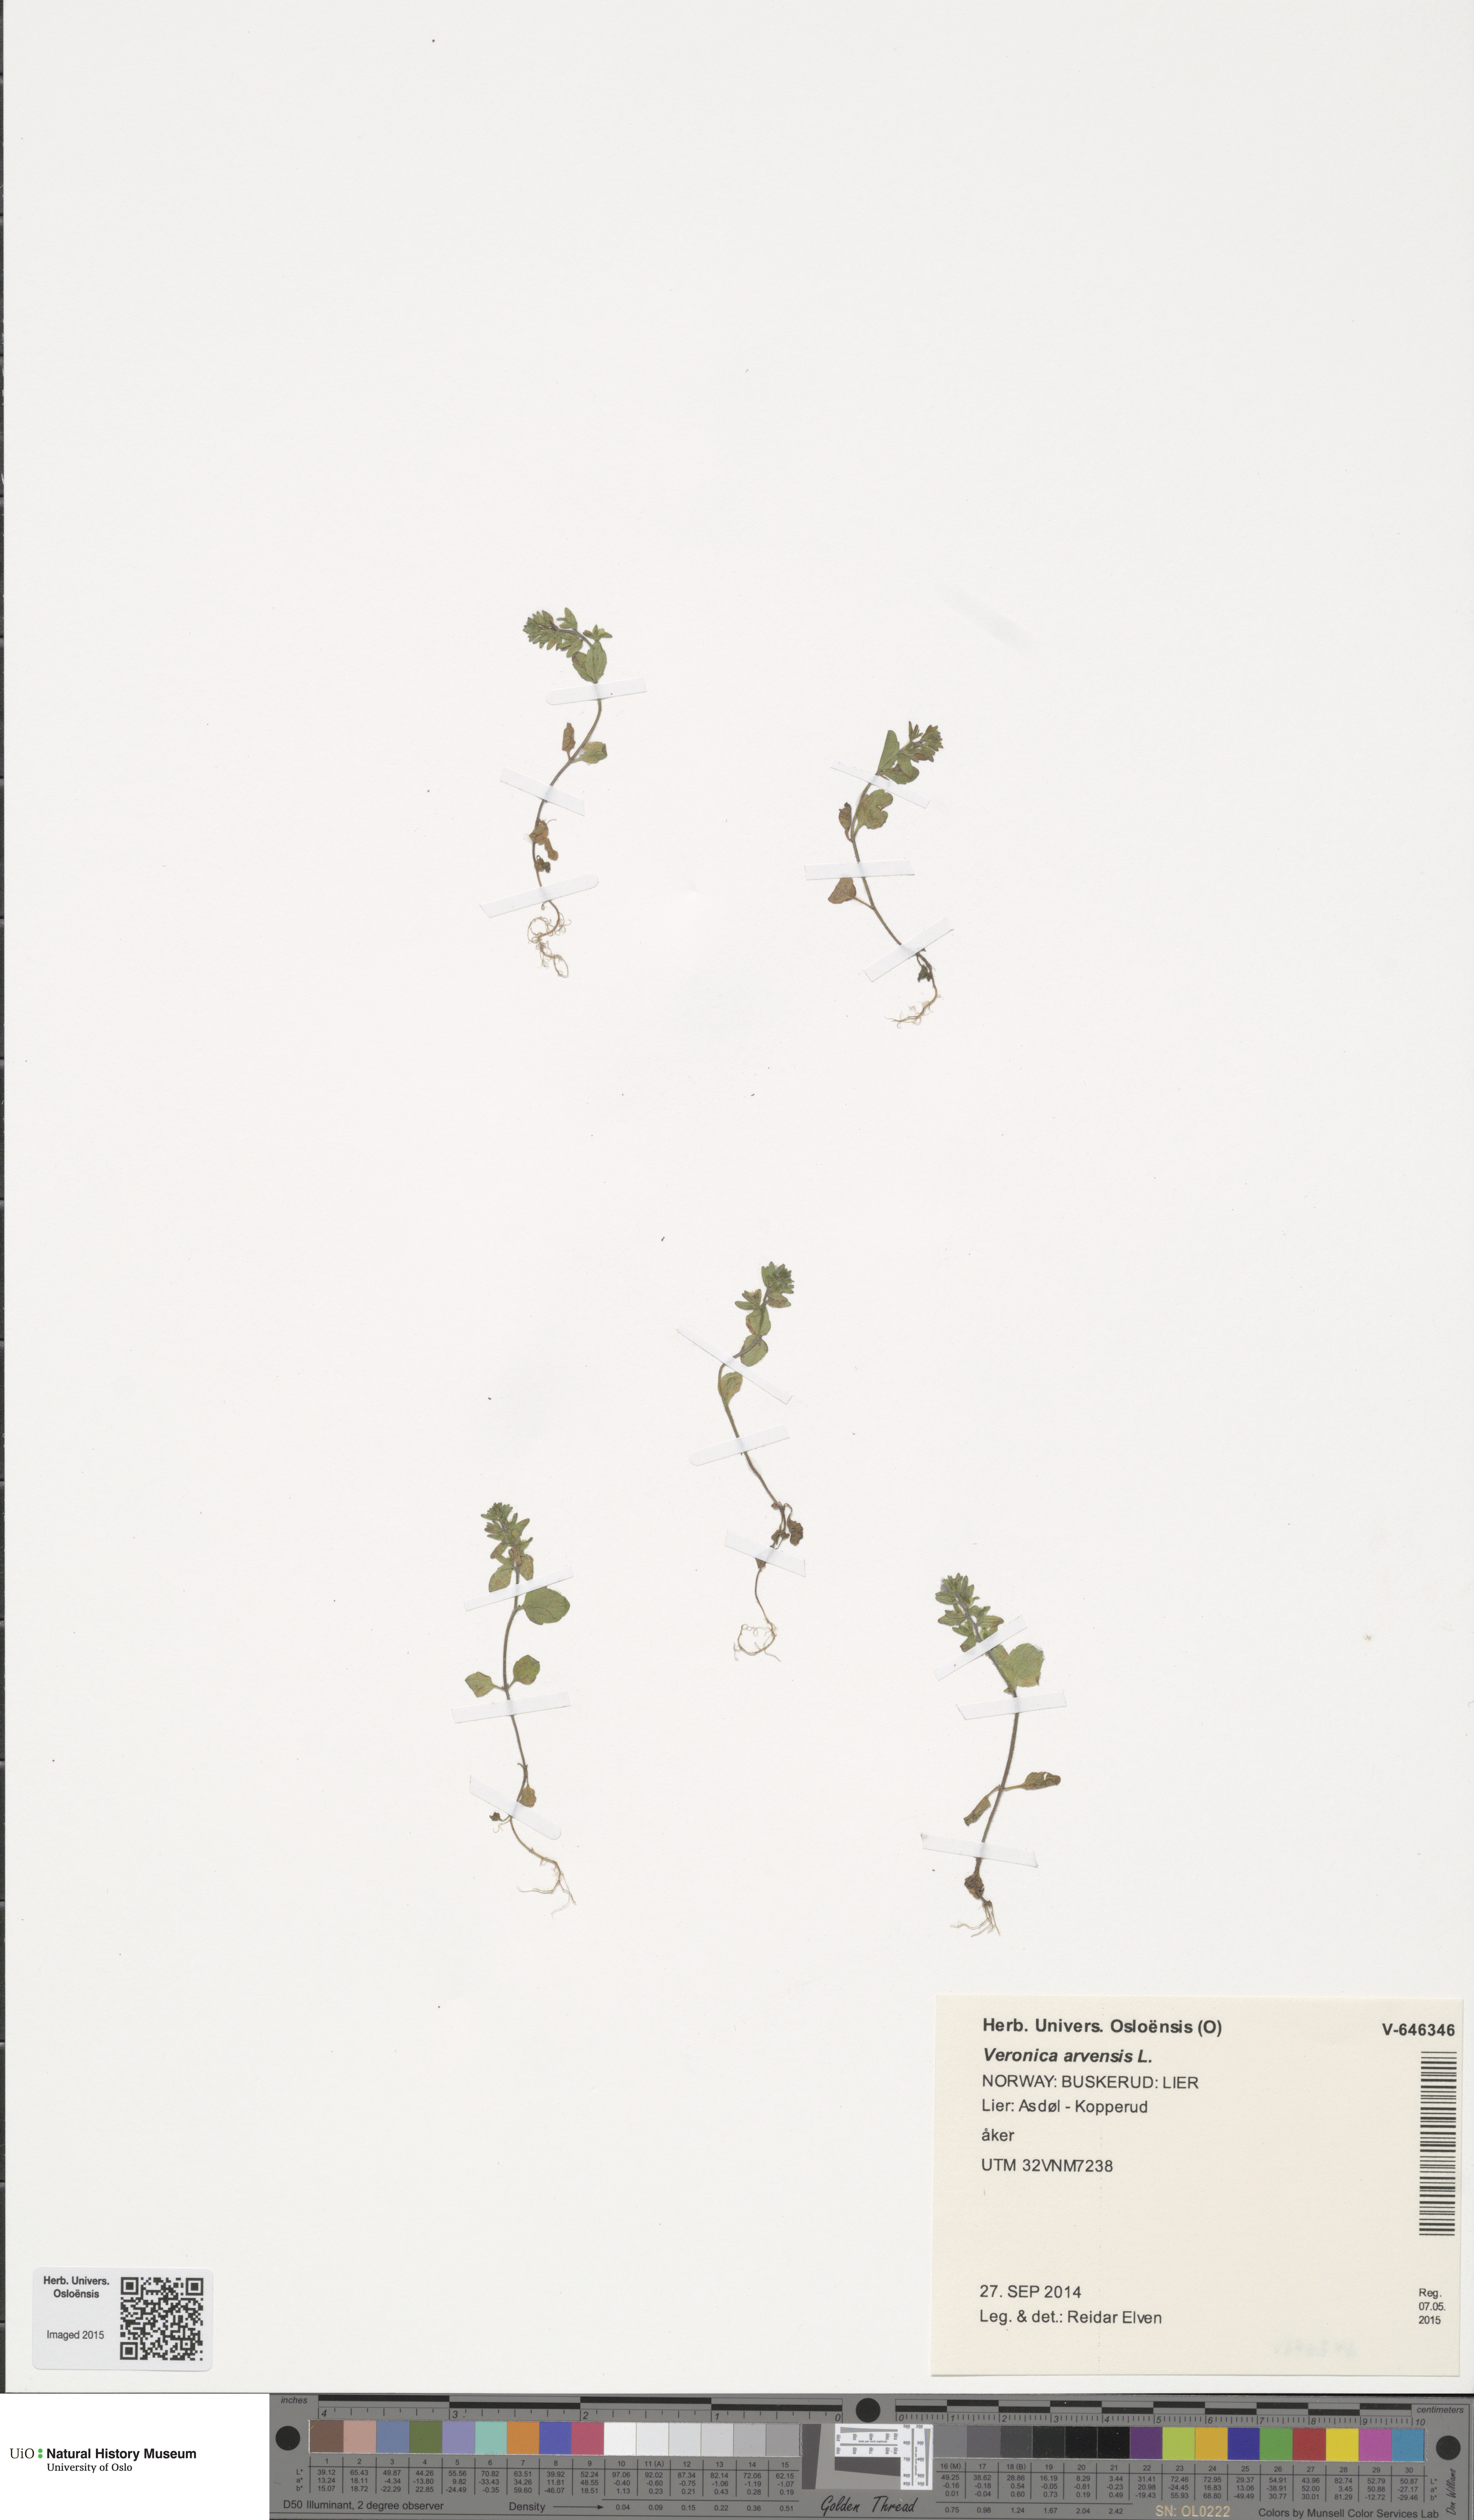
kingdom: Plantae
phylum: Tracheophyta
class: Magnoliopsida
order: Lamiales
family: Plantaginaceae
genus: Veronica
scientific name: Veronica arvensis
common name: Corn speedwell
